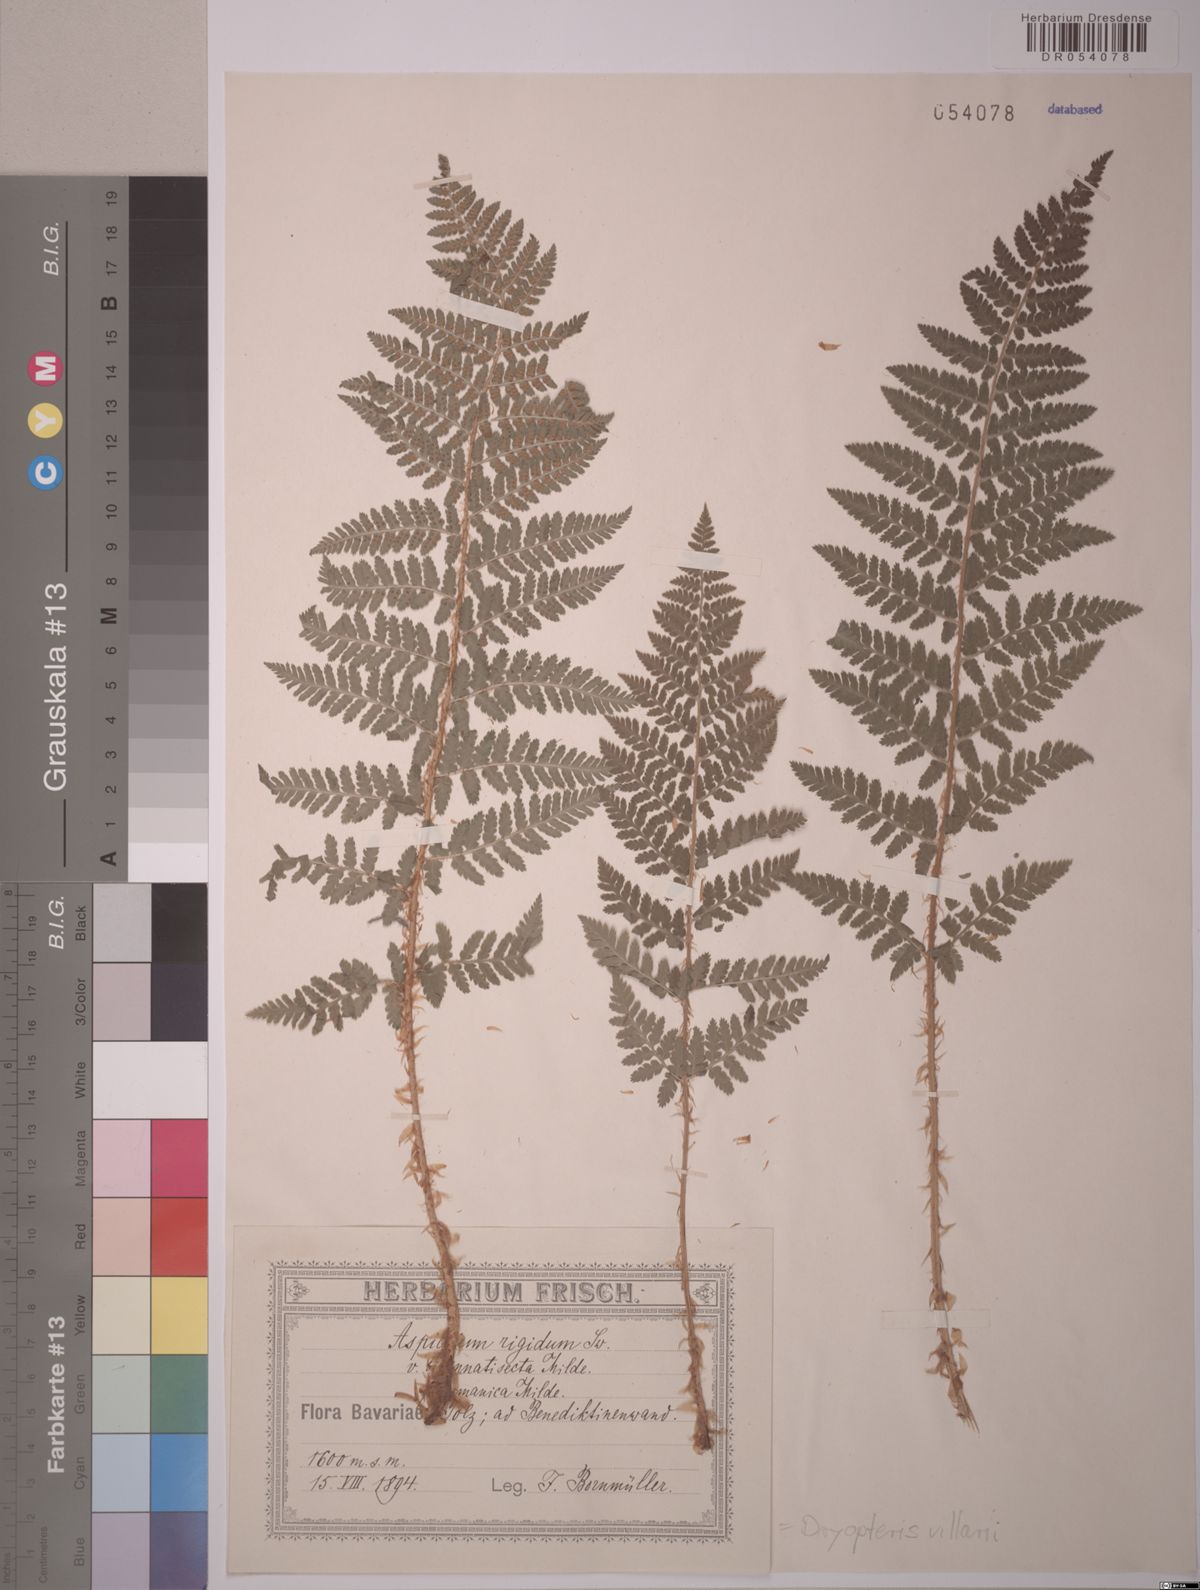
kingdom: Plantae
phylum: Tracheophyta
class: Polypodiopsida
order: Polypodiales
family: Dryopteridaceae
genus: Dryopteris
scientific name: Dryopteris villarii
